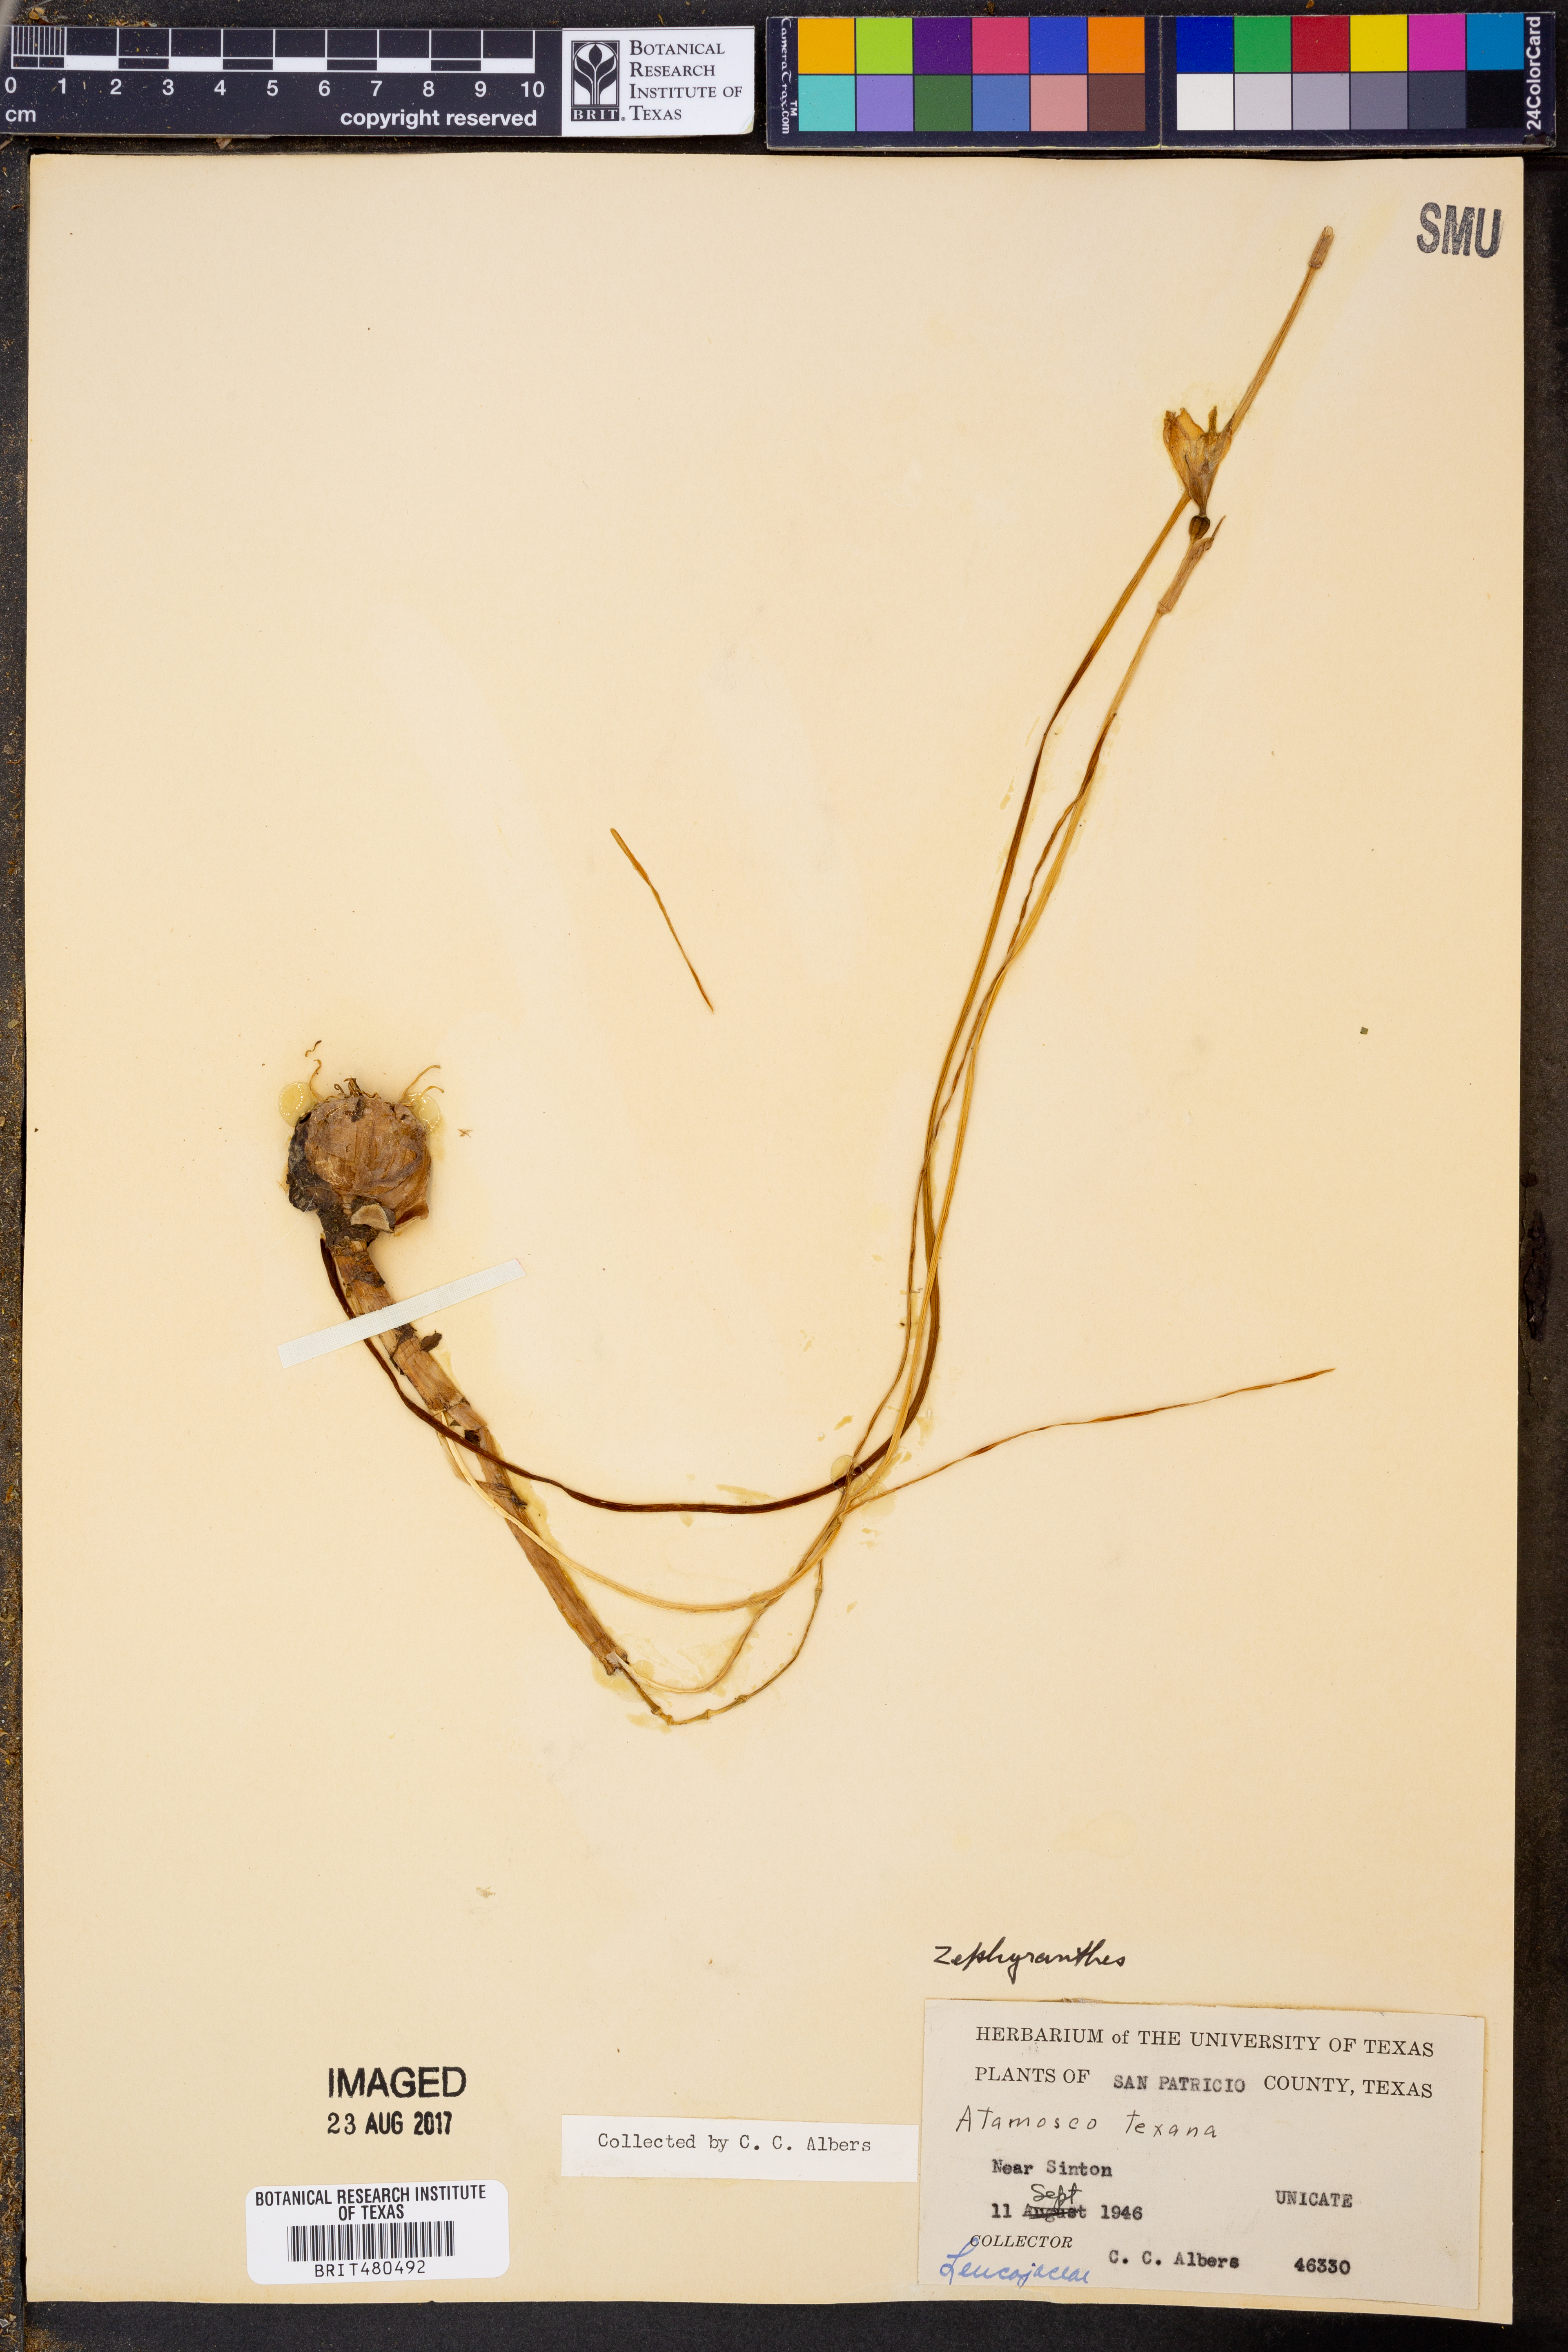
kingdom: Plantae
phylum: Tracheophyta
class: Liliopsida
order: Asparagales
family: Amaryllidaceae
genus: Zephyranthes
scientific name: Zephyranthes tubispatha
